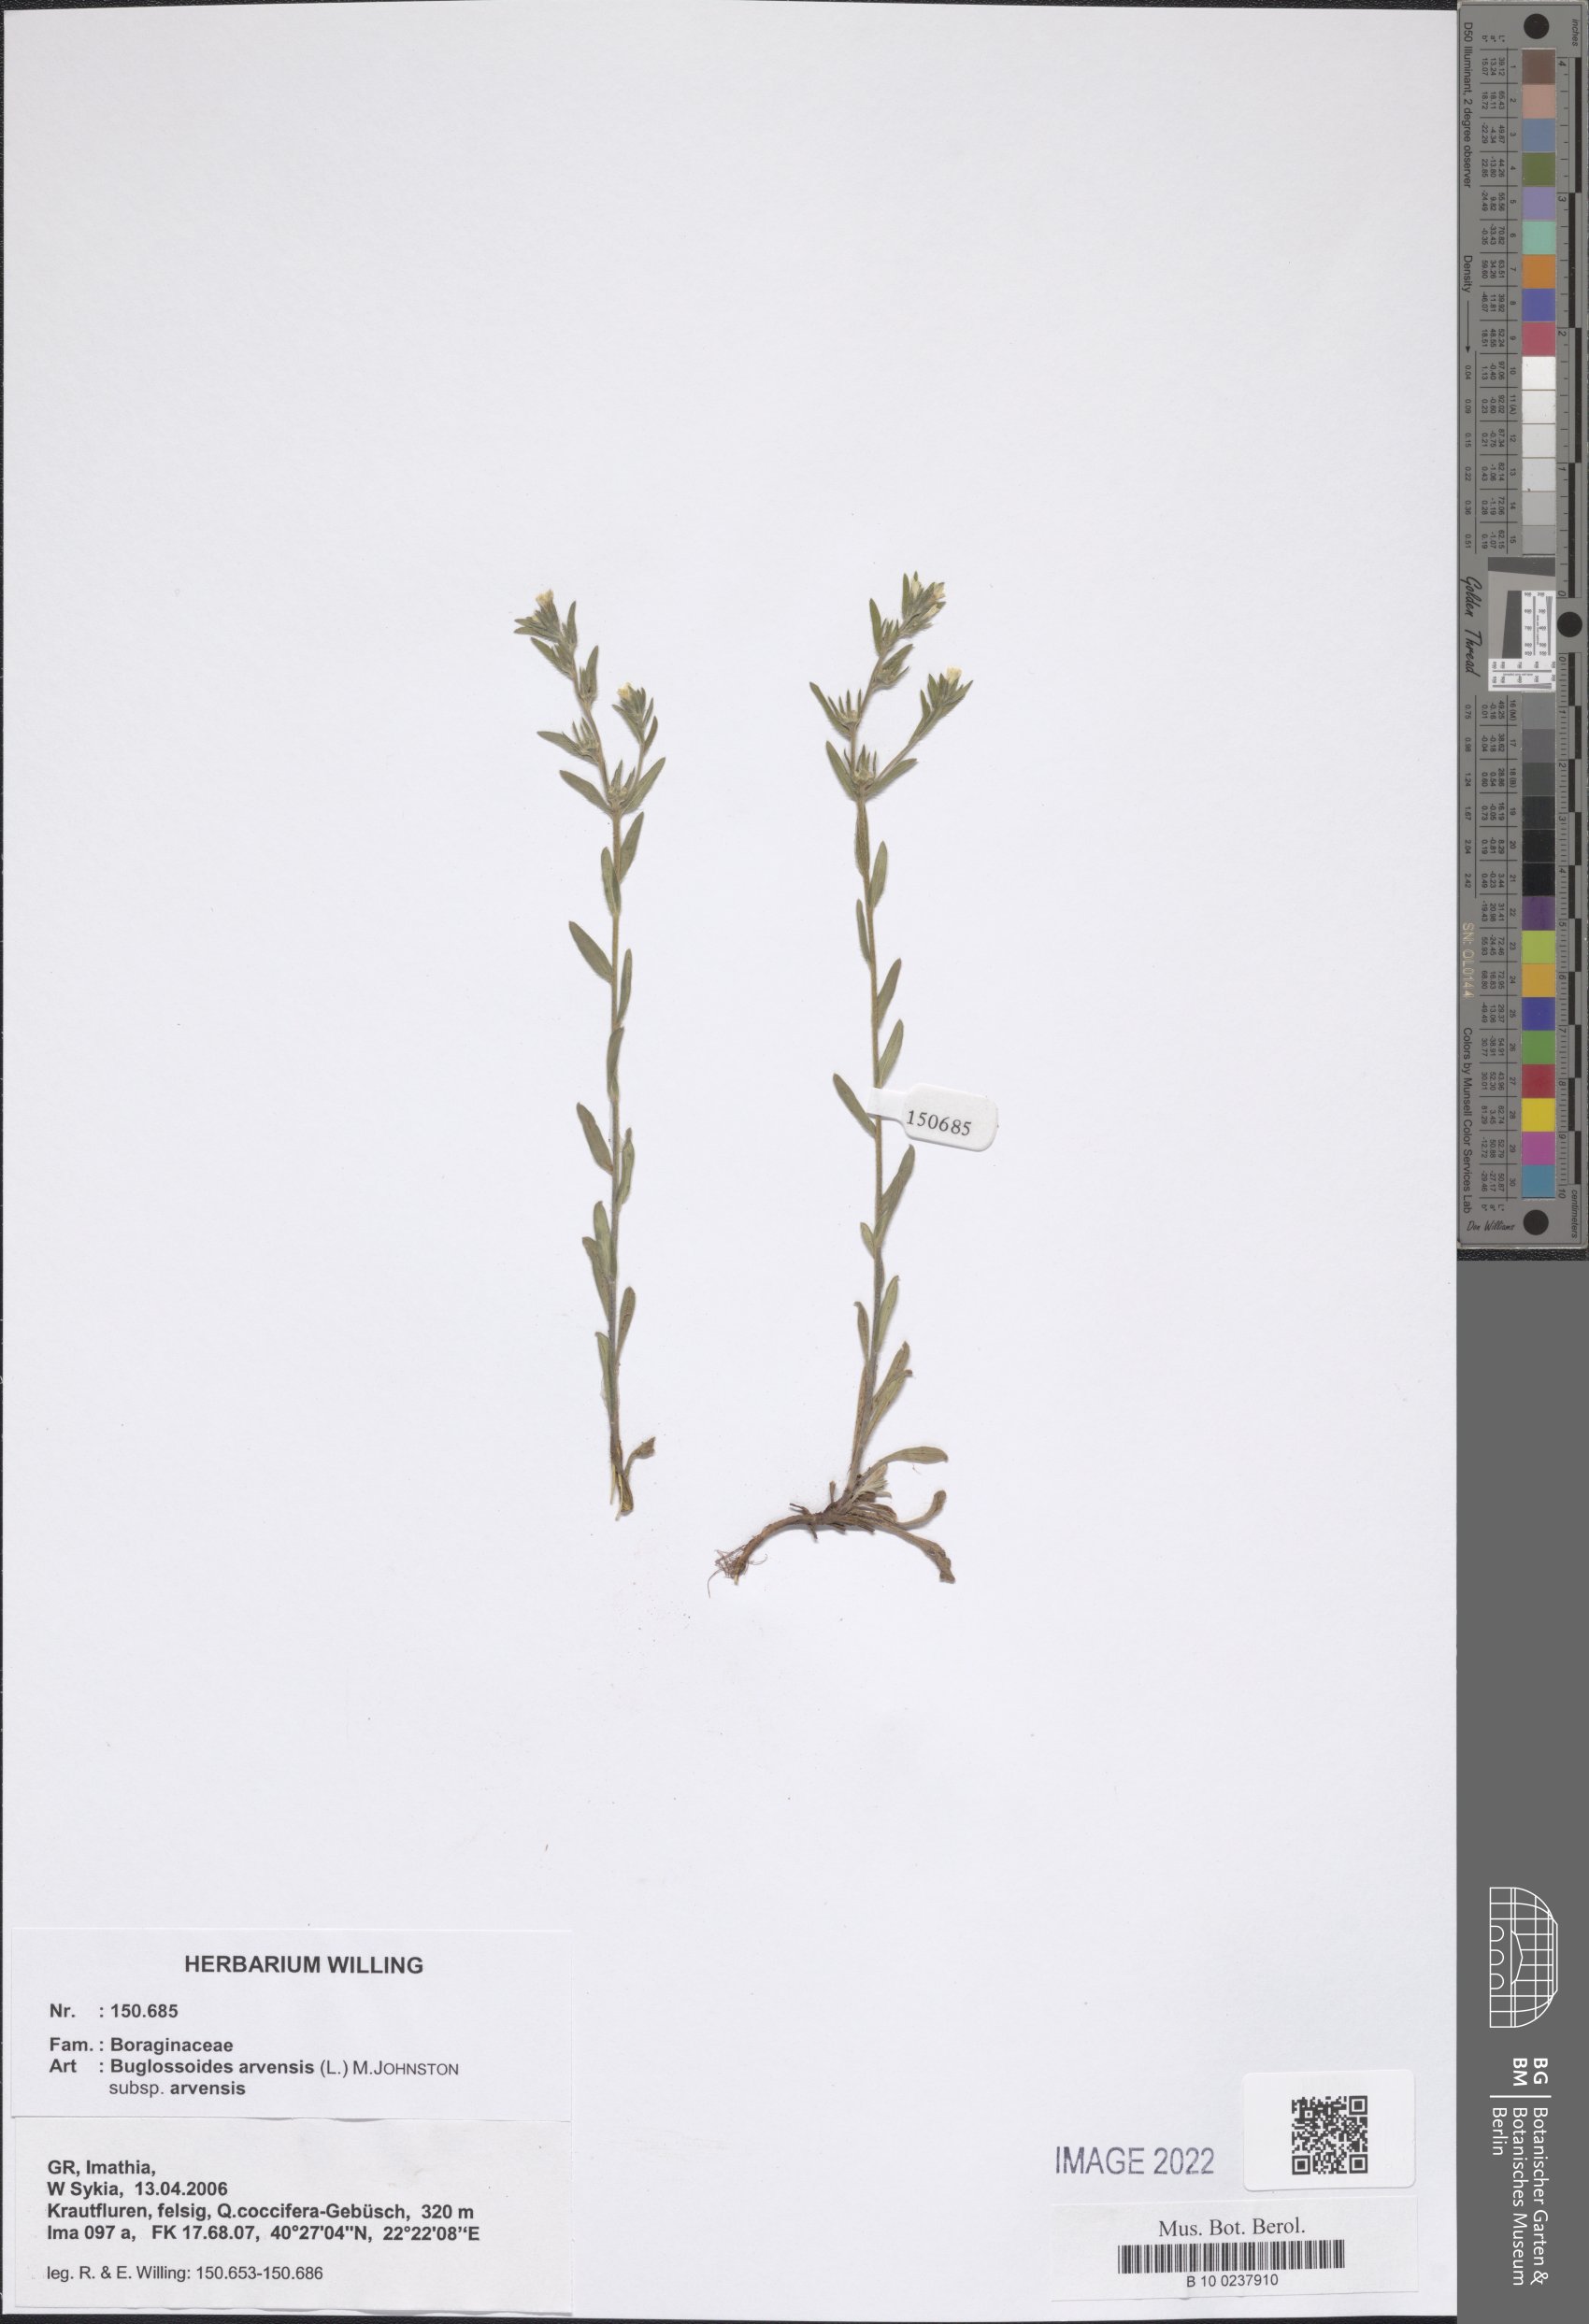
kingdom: Plantae
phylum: Tracheophyta
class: Magnoliopsida
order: Boraginales
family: Boraginaceae
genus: Buglossoides
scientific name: Buglossoides arvensis
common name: Corn gromwell
